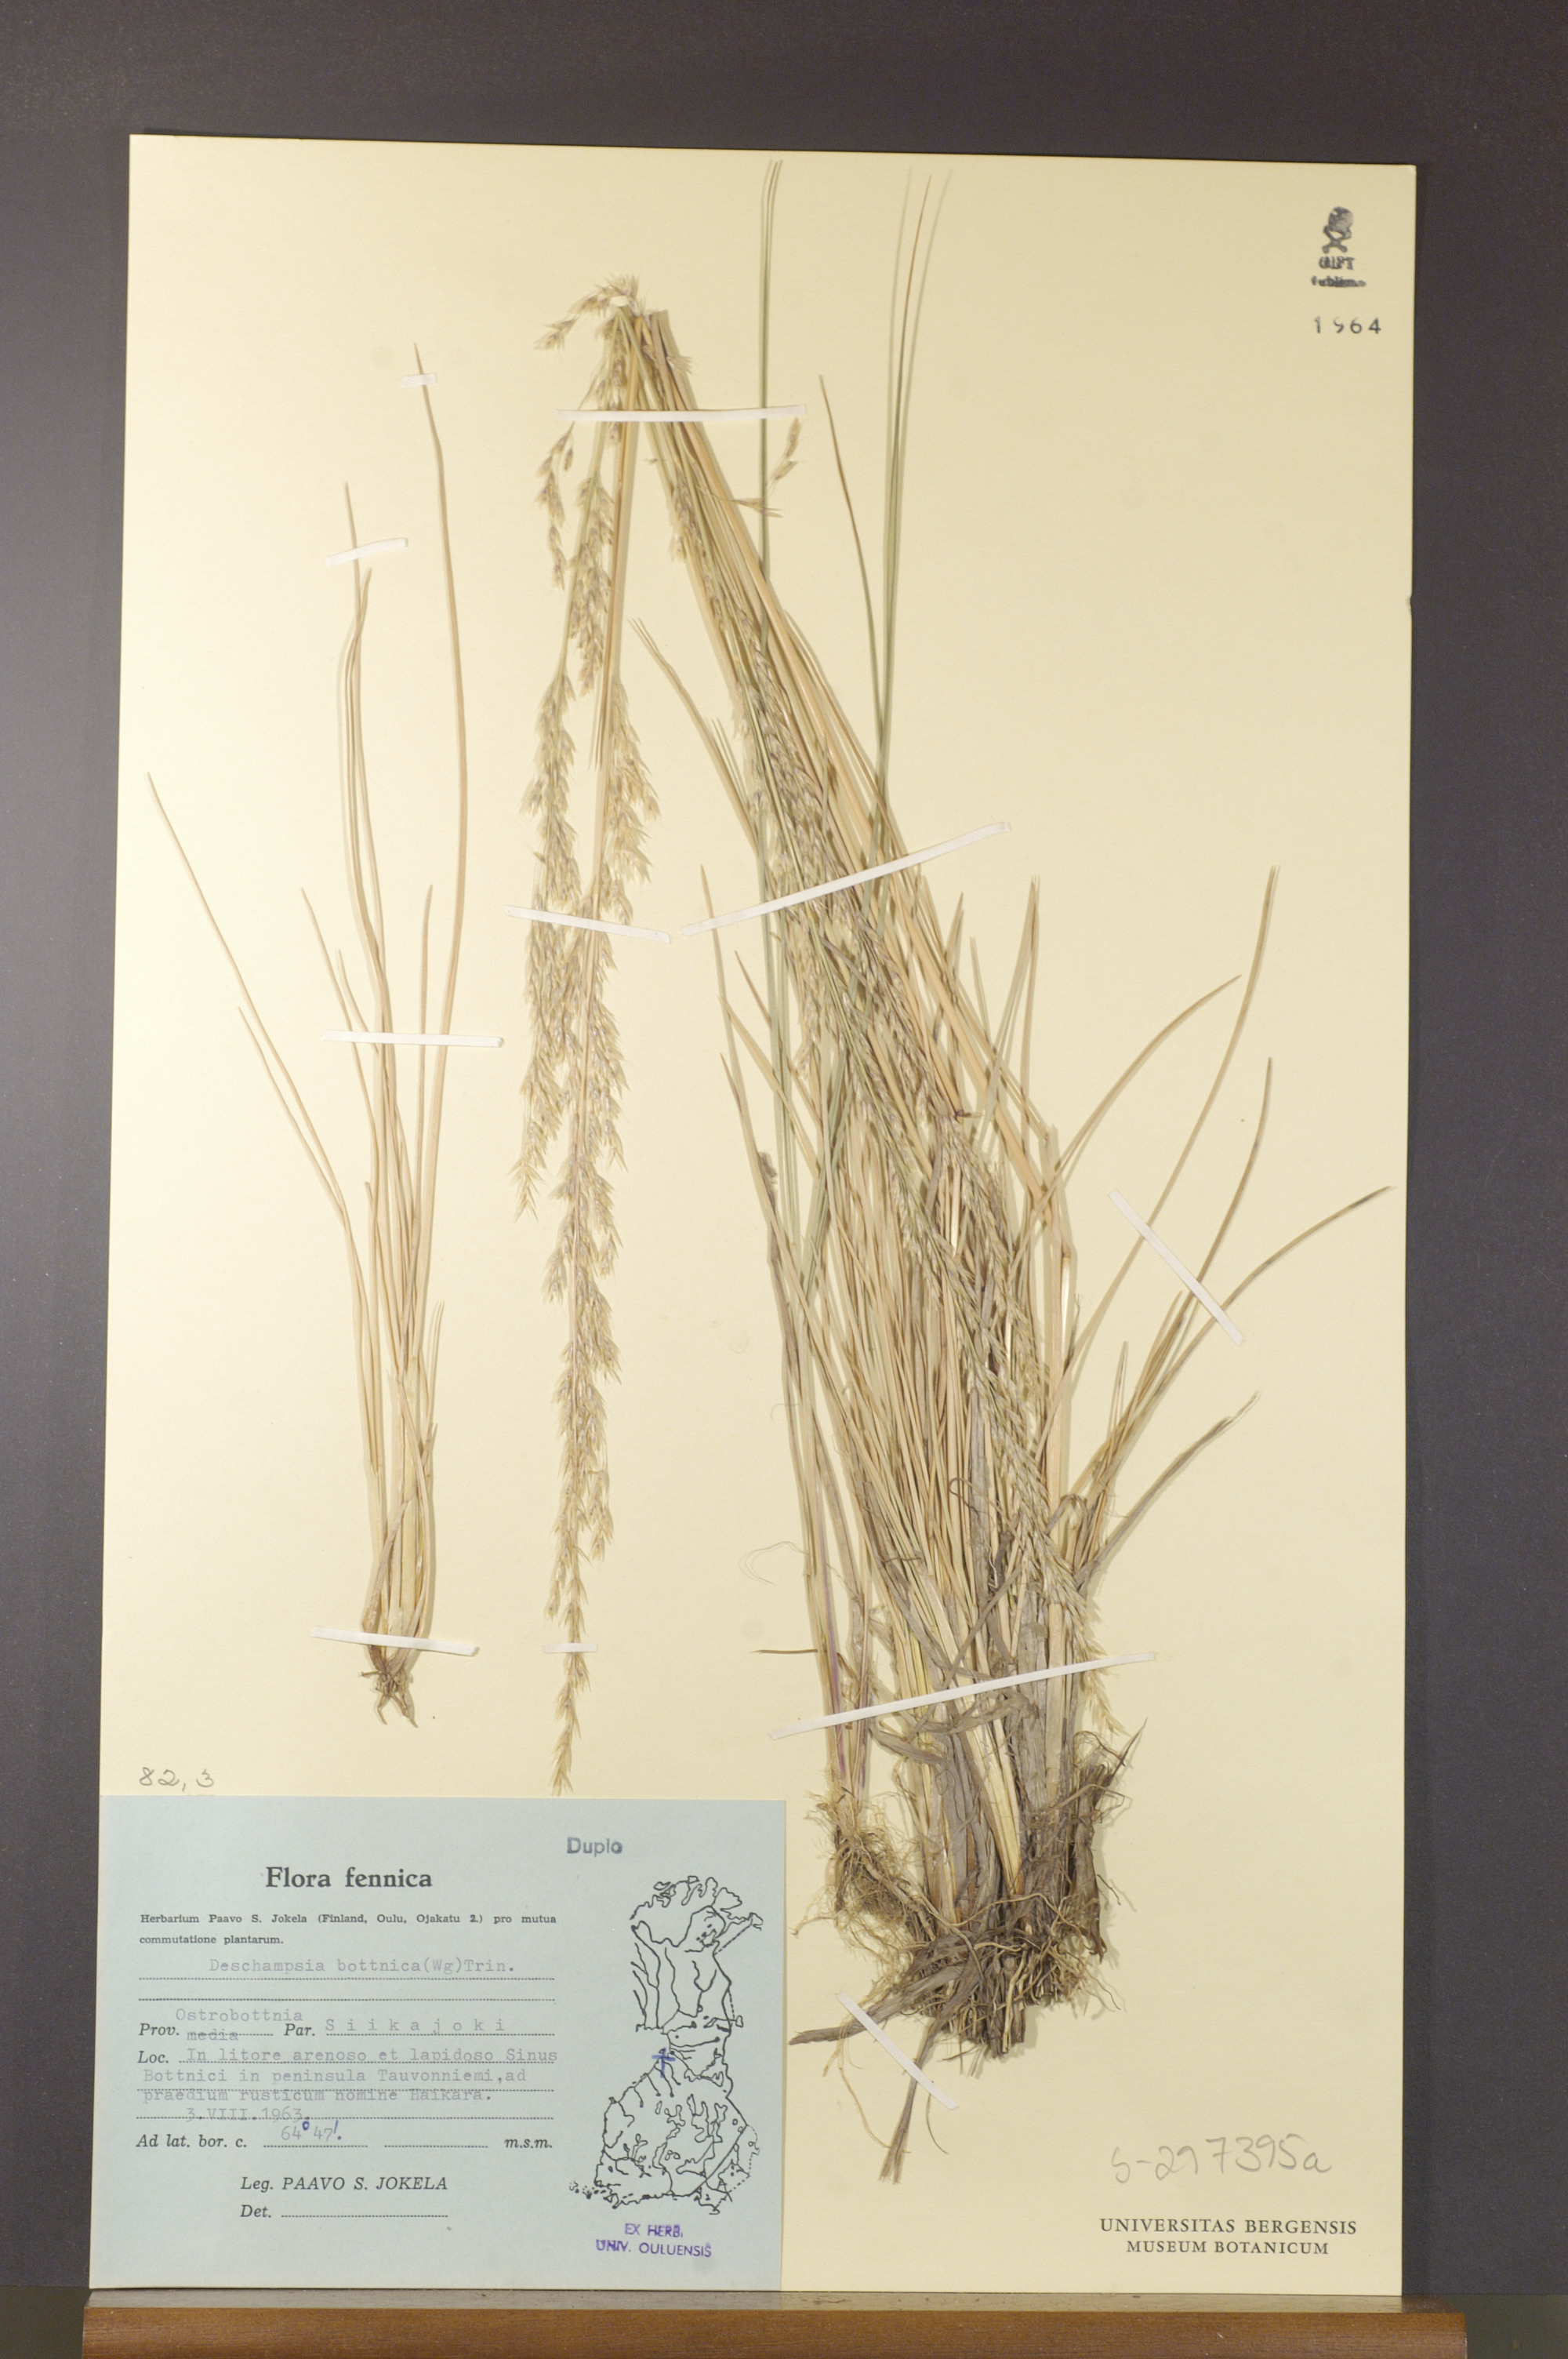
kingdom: Plantae
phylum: Tracheophyta
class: Liliopsida
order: Poales
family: Poaceae
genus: Deschampsia
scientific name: Deschampsia cespitosa
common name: Tufted hair-grass
